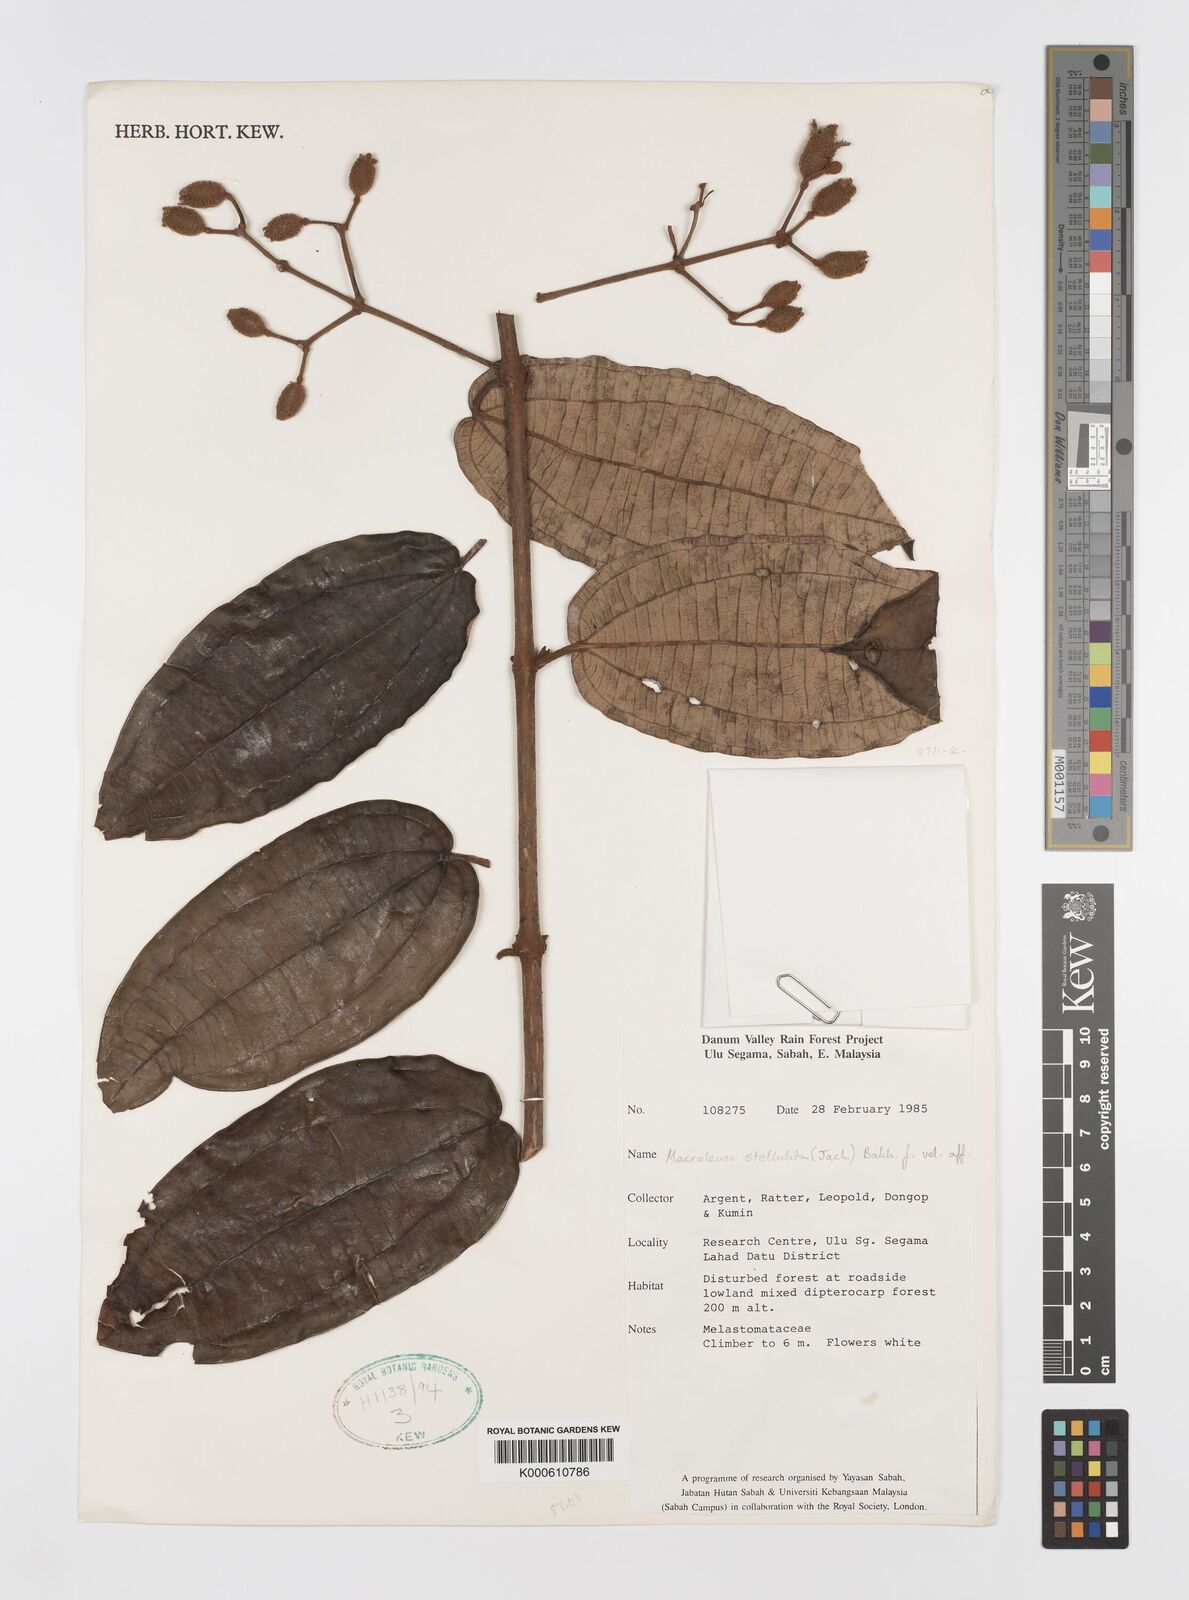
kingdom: Plantae
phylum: Tracheophyta
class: Magnoliopsida
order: Myrtales
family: Melastomataceae
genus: Macrolenes
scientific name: Macrolenes
